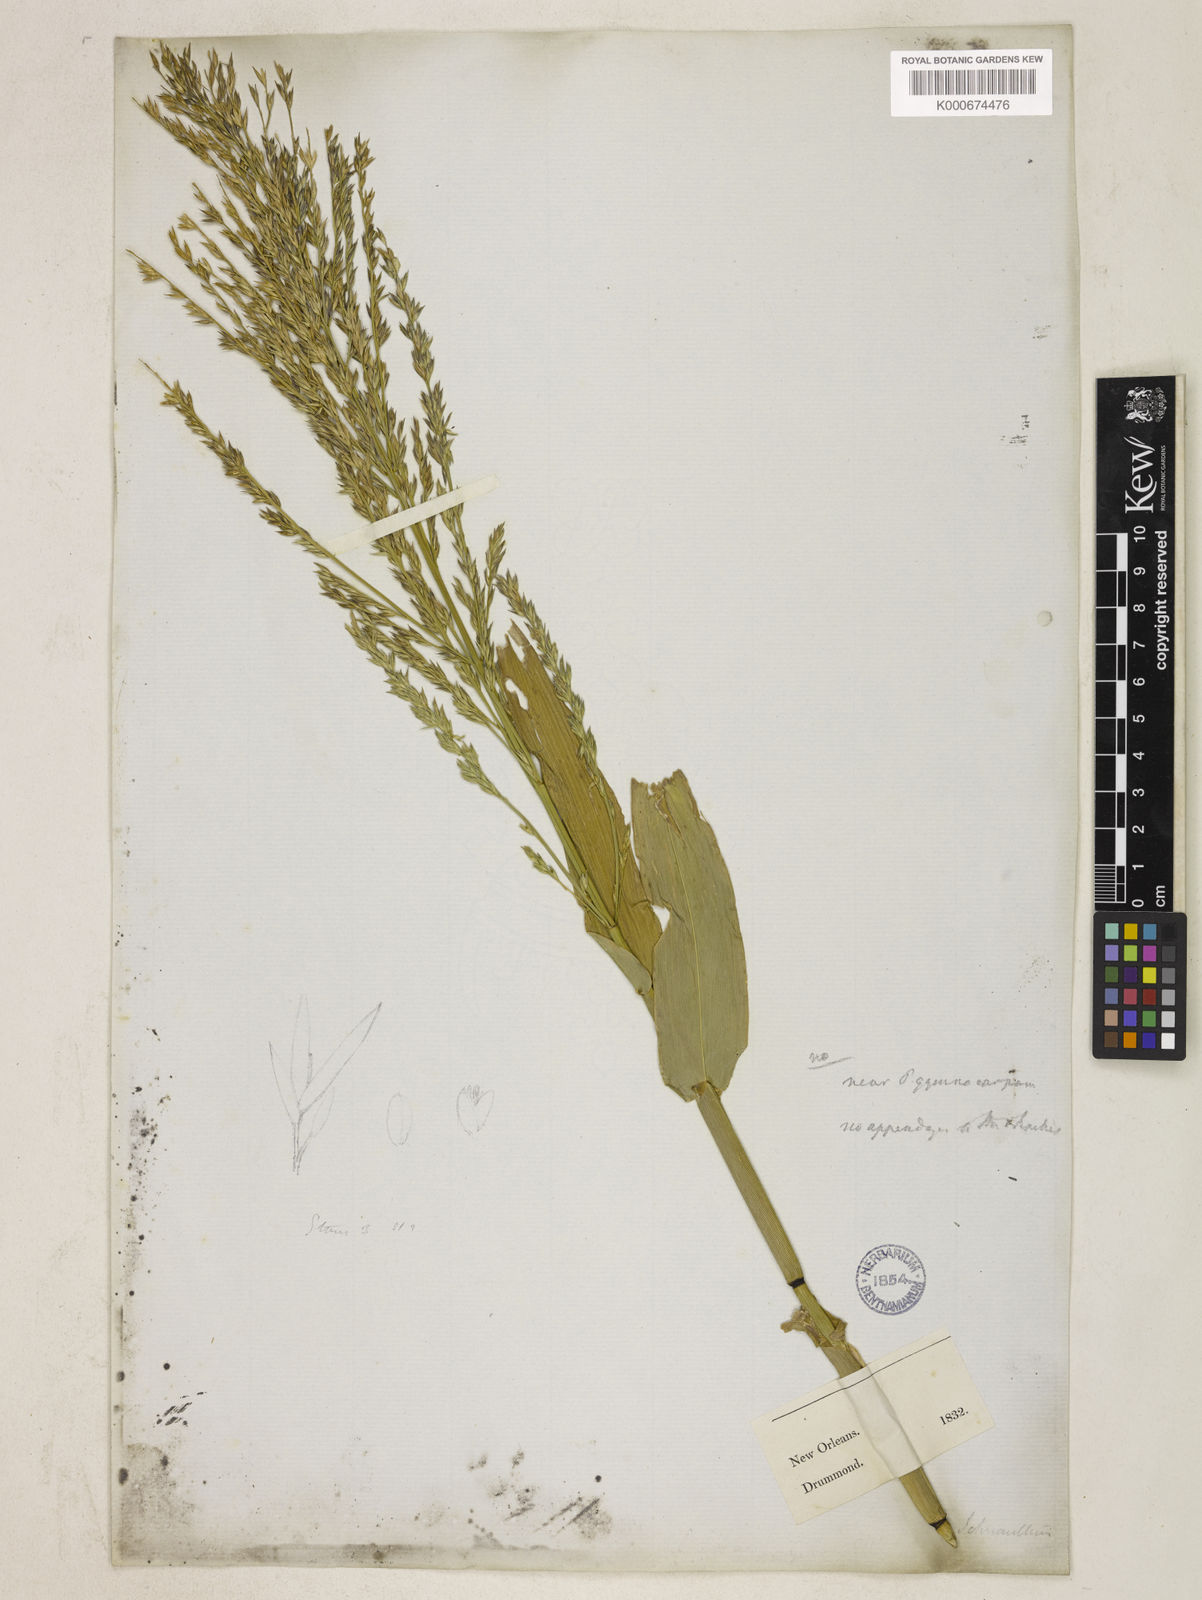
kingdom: Plantae
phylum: Tracheophyta
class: Liliopsida
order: Poales
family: Poaceae
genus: Panicum
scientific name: Panicum gymnocarpon
